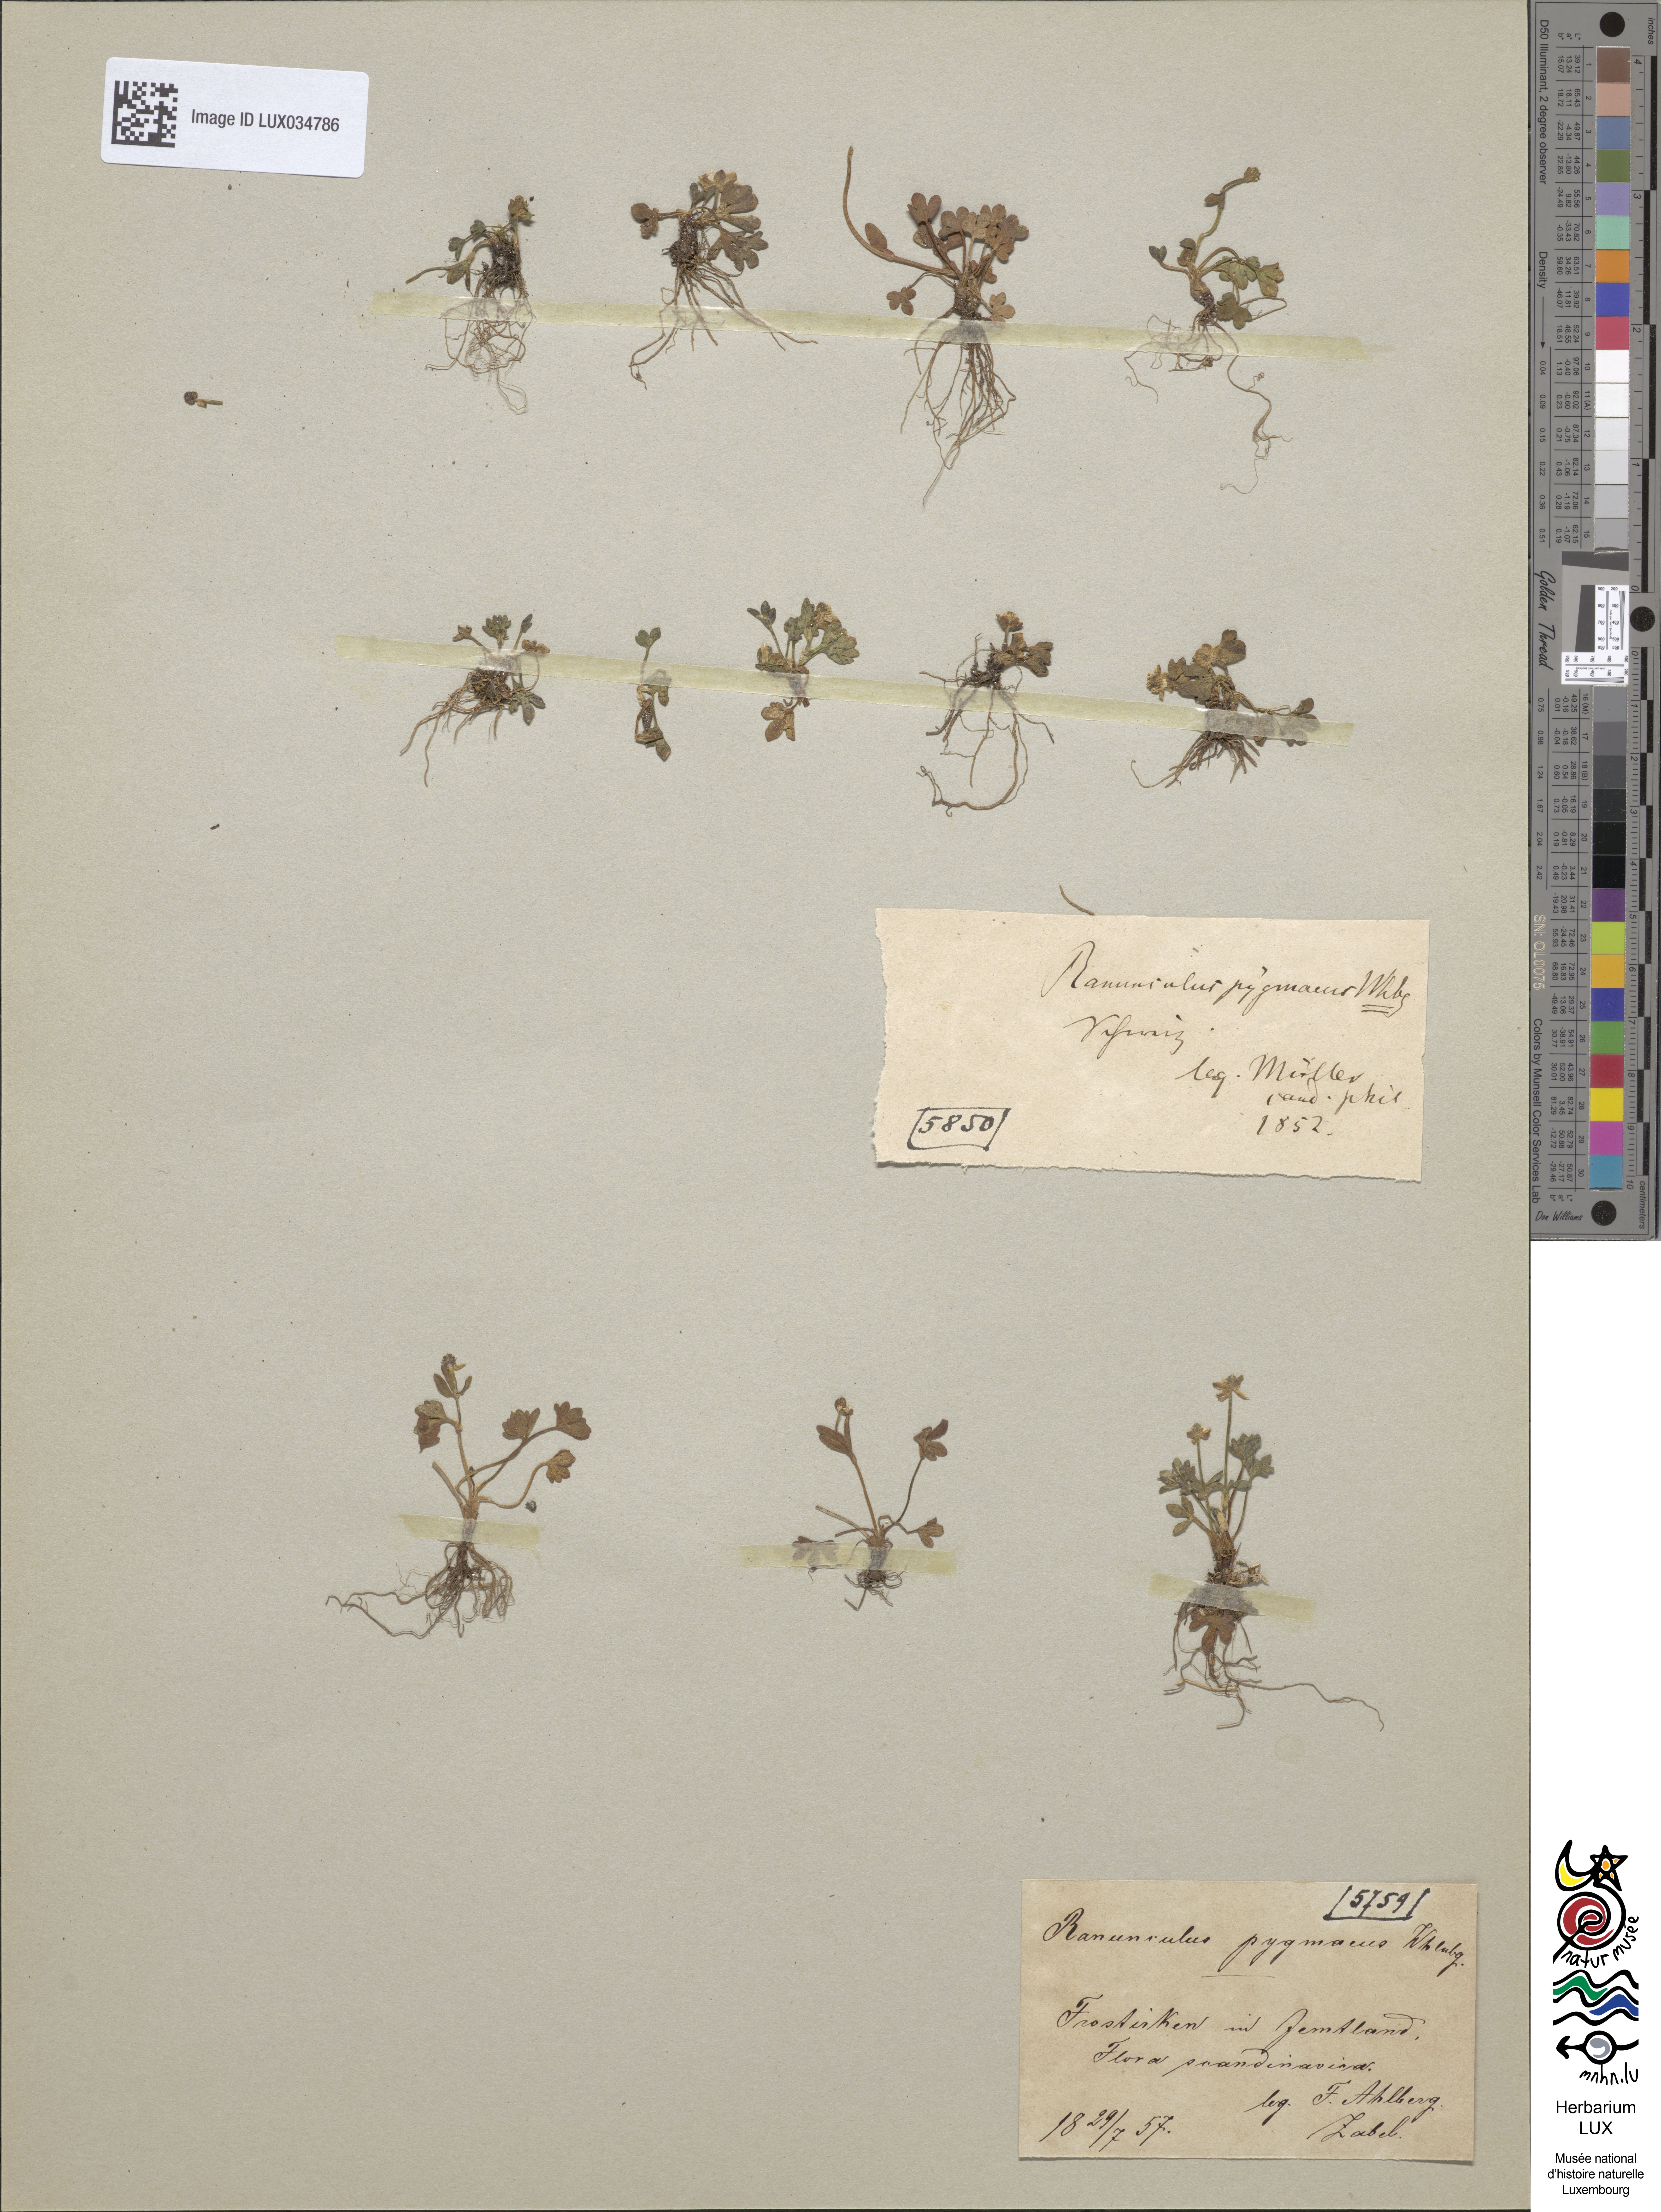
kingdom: Plantae
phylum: Tracheophyta
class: Magnoliopsida
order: Ranunculales
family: Ranunculaceae
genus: Ranunculus
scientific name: Ranunculus pygmaeus
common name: Dwarf buttercup
